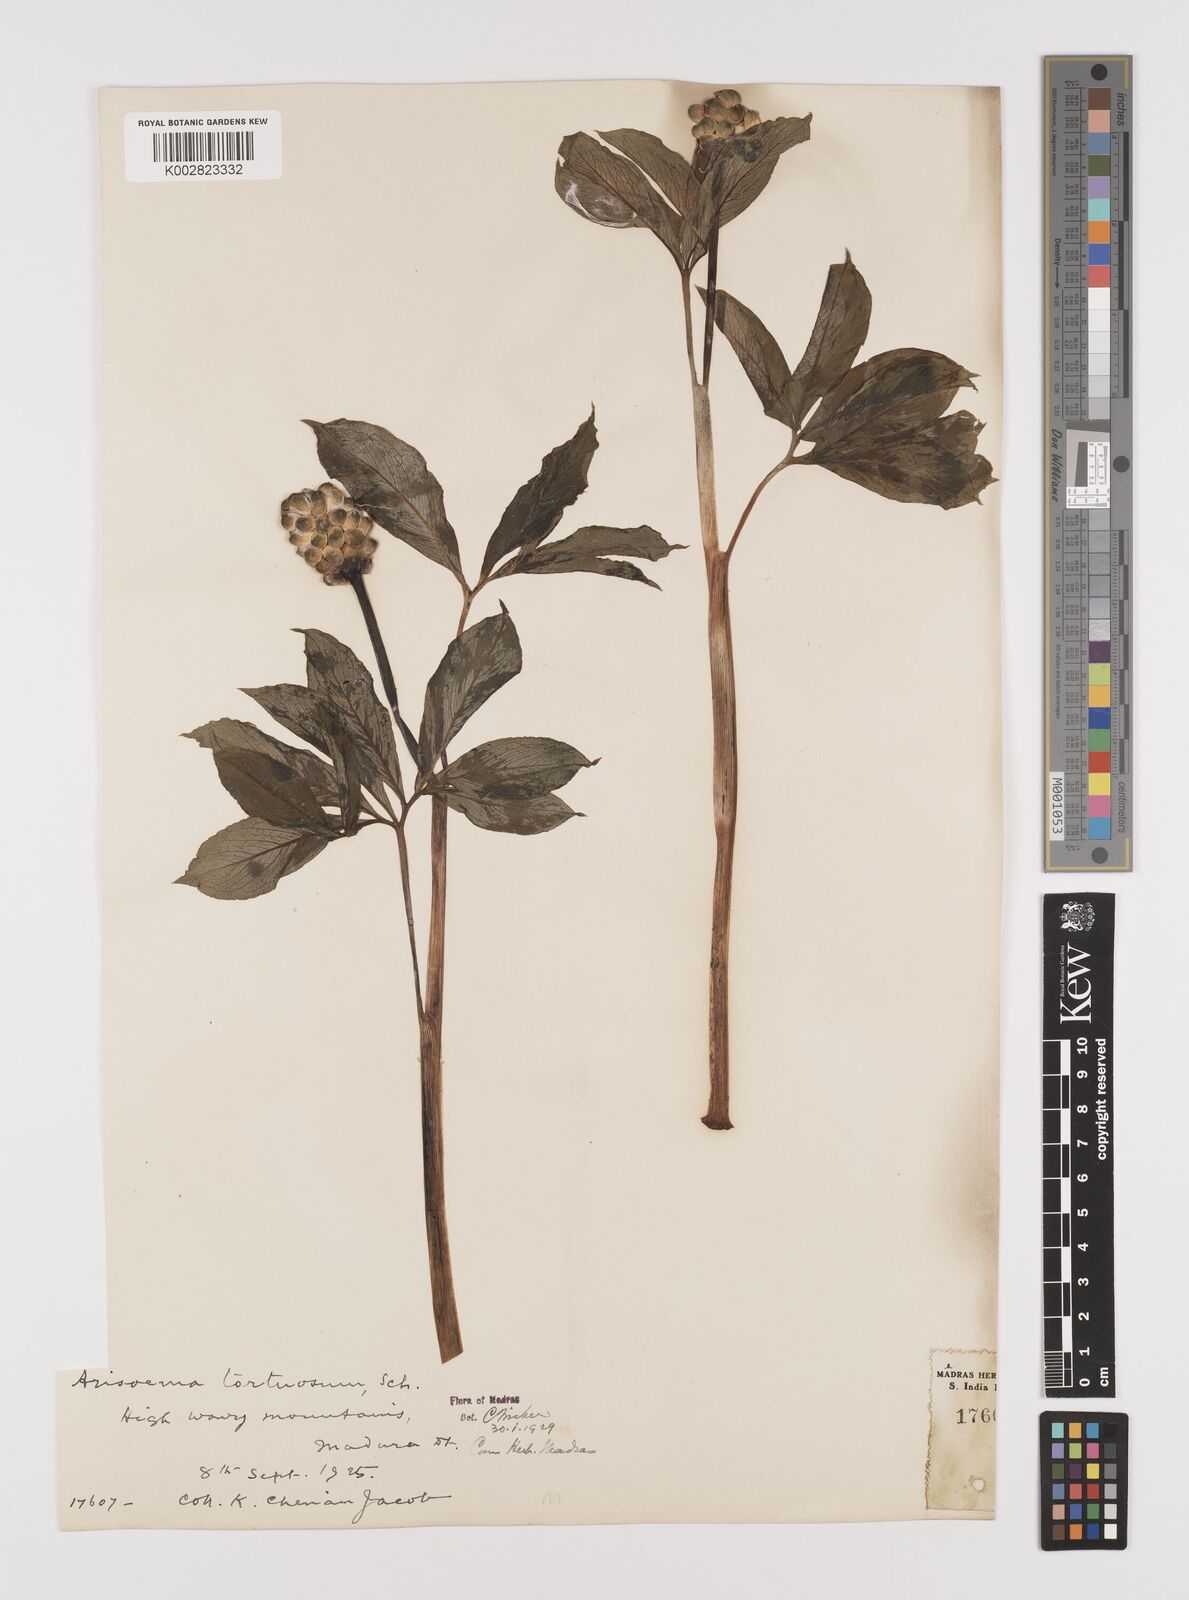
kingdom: Plantae
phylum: Tracheophyta
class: Liliopsida
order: Alismatales
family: Araceae
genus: Arisaema
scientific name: Arisaema tortuosum
